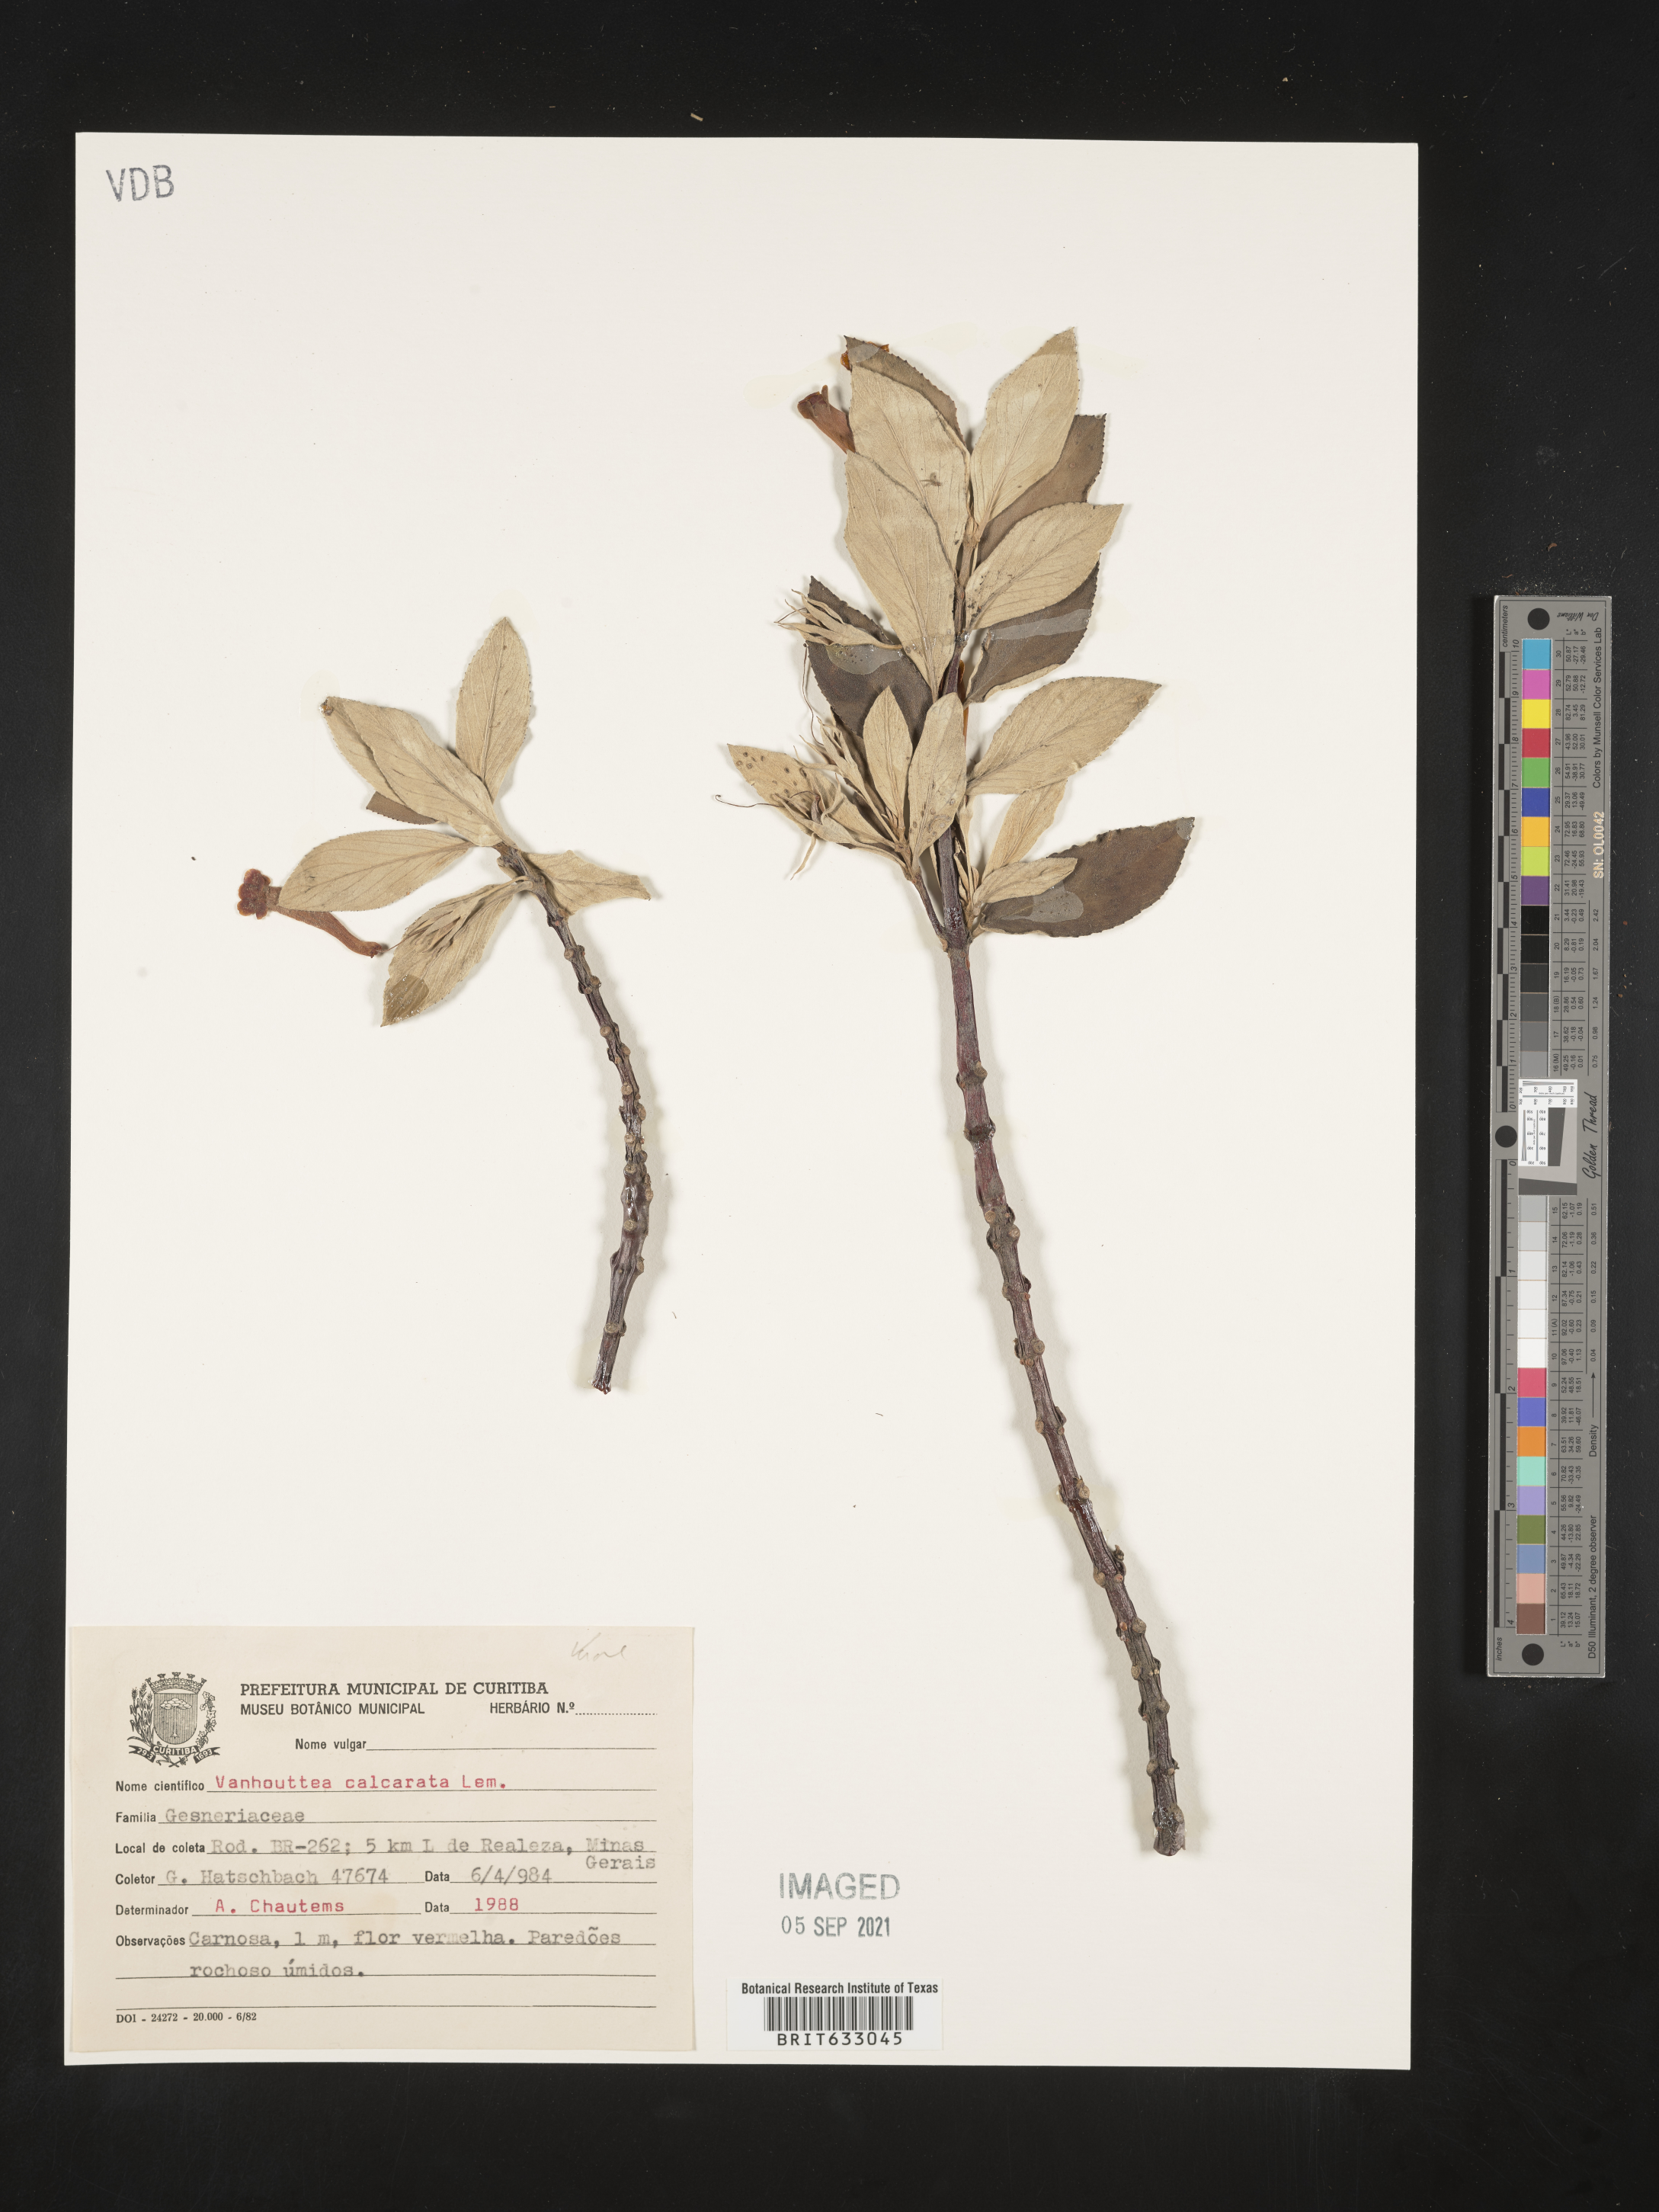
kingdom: Plantae
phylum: Tracheophyta
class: Magnoliopsida
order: Lamiales
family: Gesneriaceae
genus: Vanhouttea
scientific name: Vanhouttea
